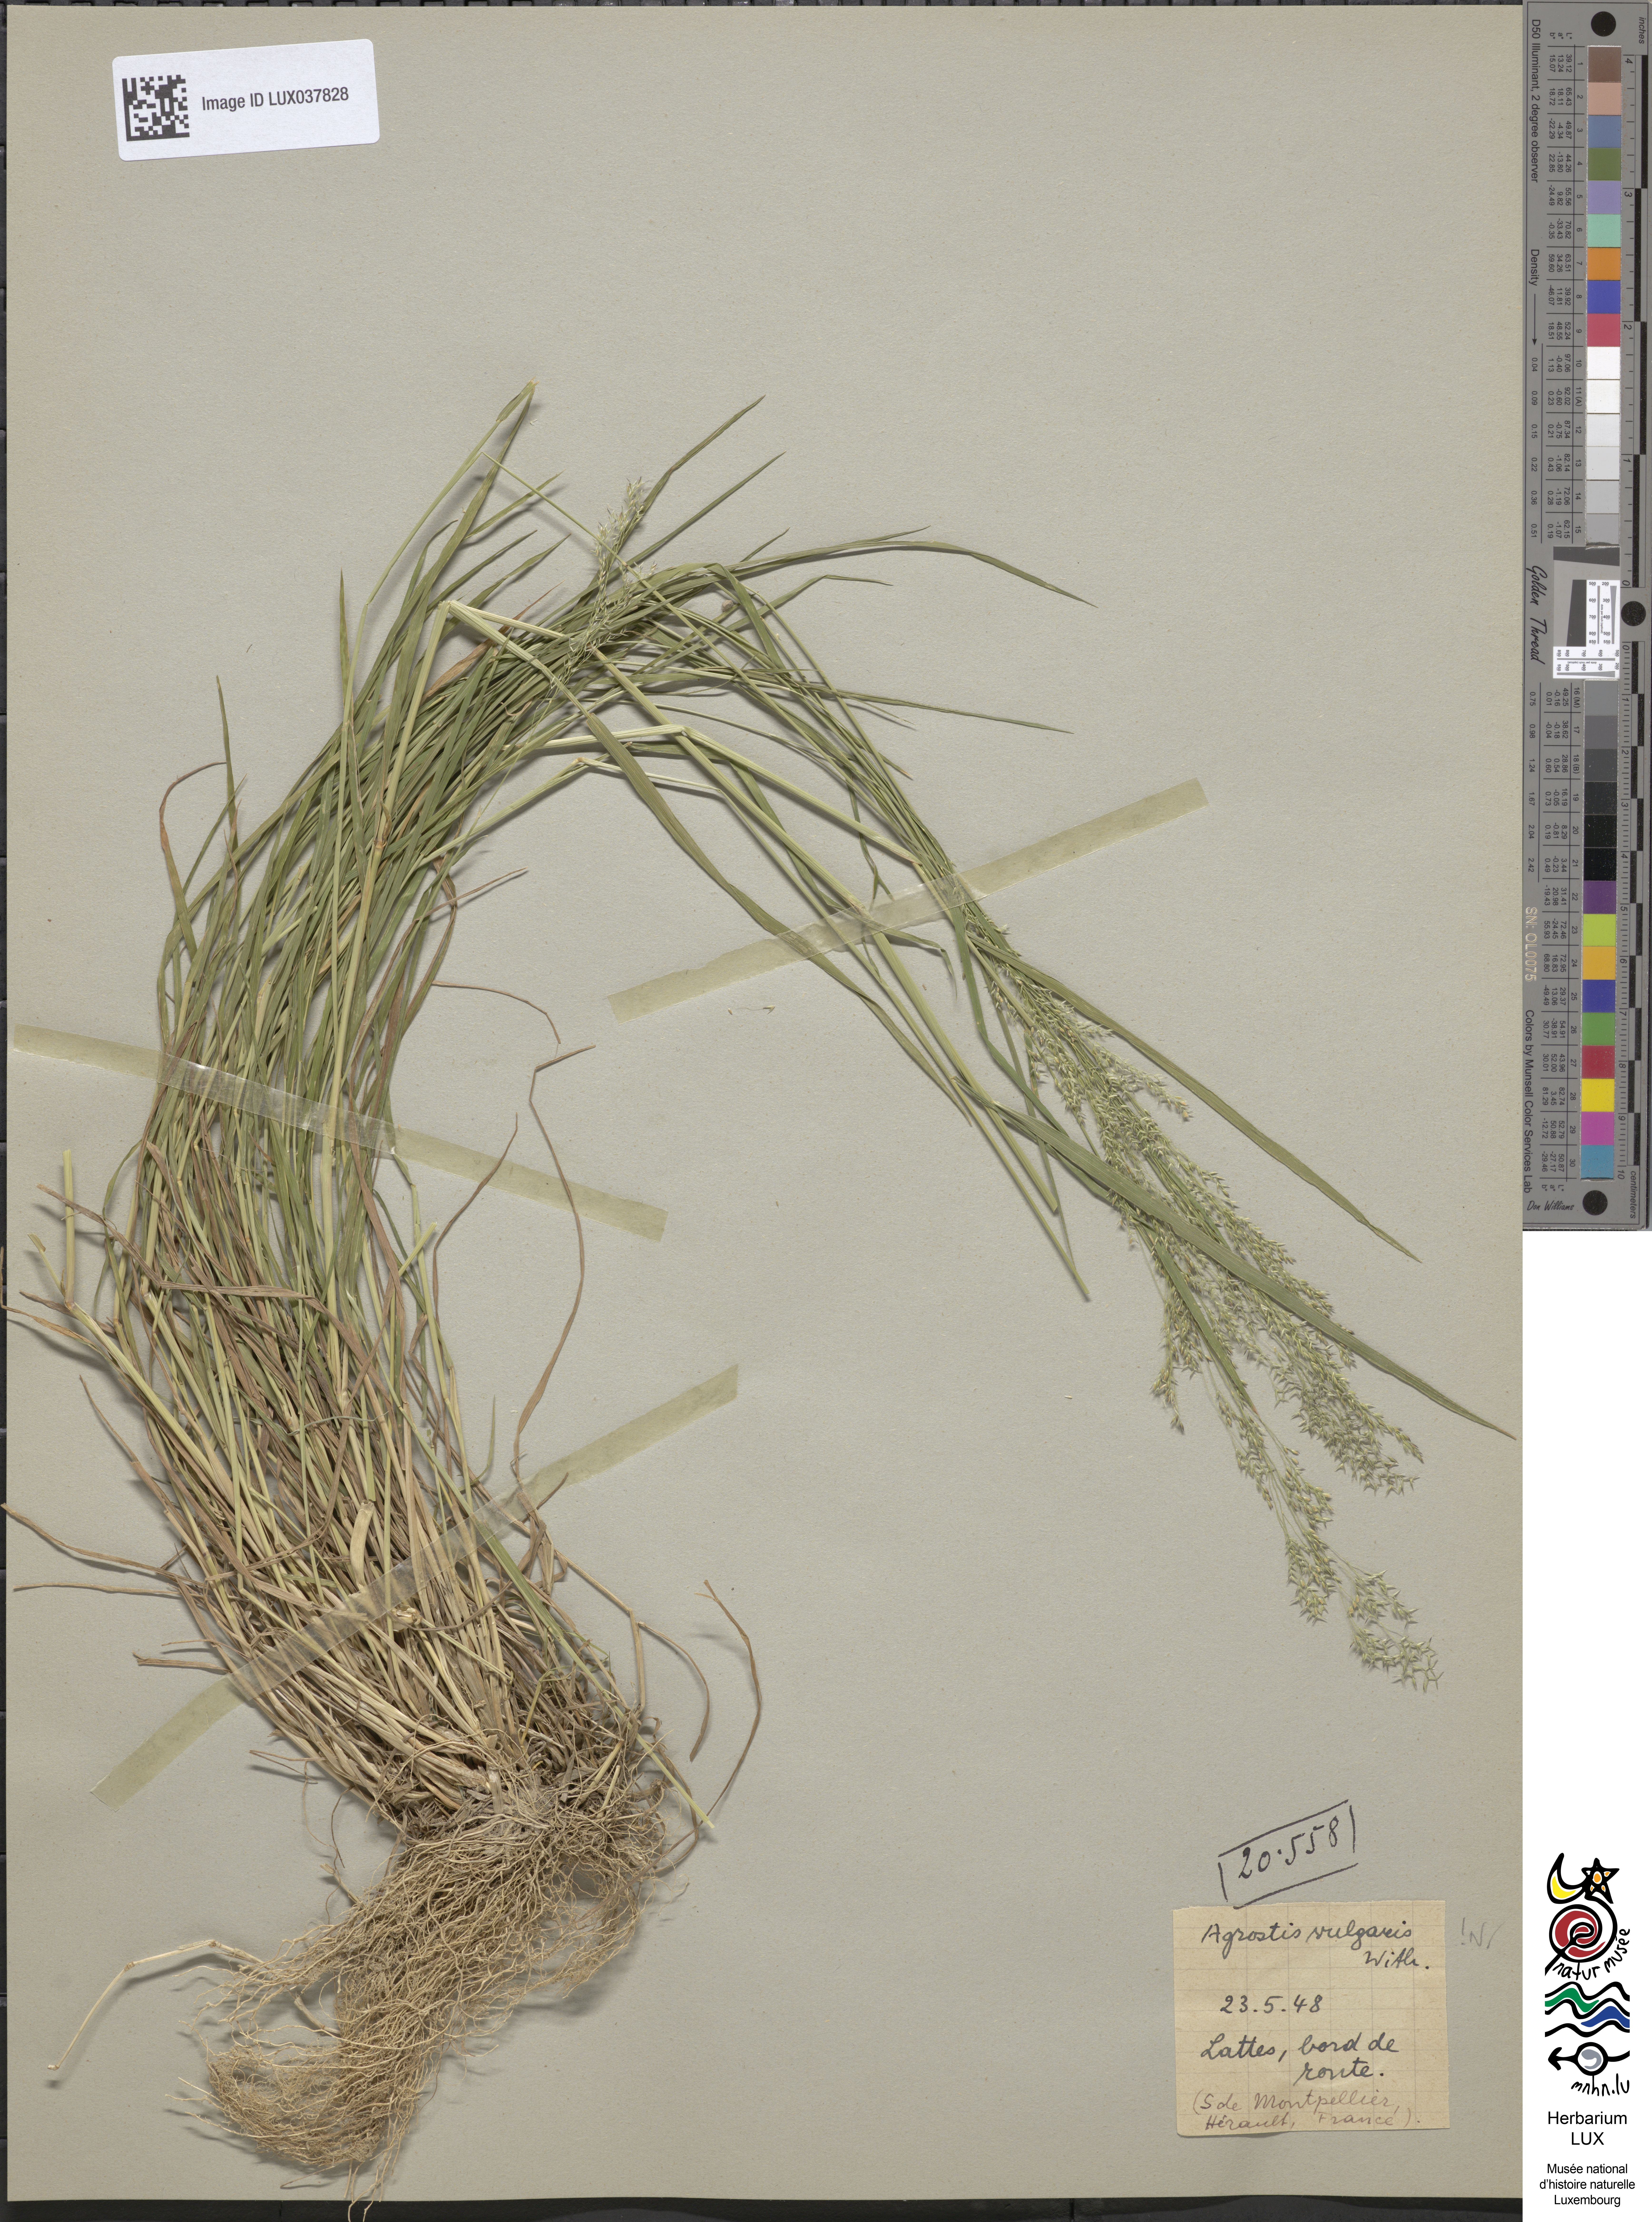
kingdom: Plantae
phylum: Tracheophyta
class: Liliopsida
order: Poales
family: Poaceae
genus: Agrostis
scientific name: Agrostis capillaris
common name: Colonial bentgrass
